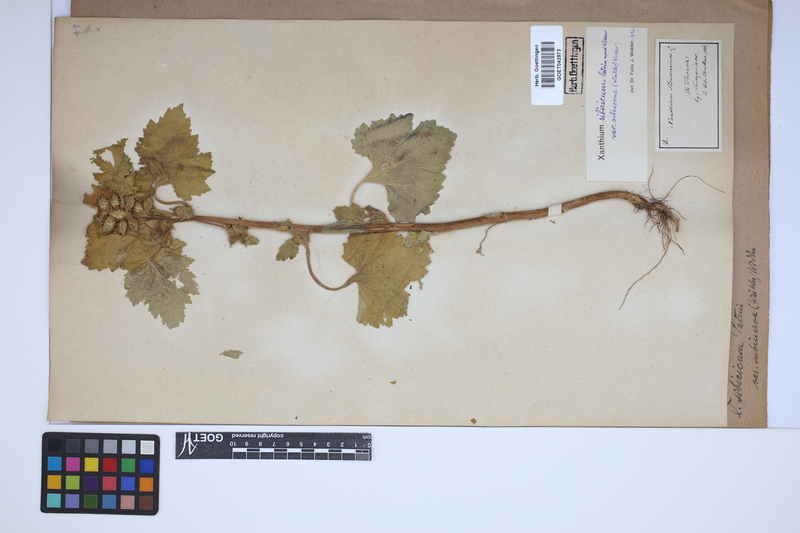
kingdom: Plantae
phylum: Tracheophyta
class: Magnoliopsida
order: Asterales
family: Asteraceae
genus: Xanthium
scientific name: Xanthium strumarium
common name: Rough cocklebur
